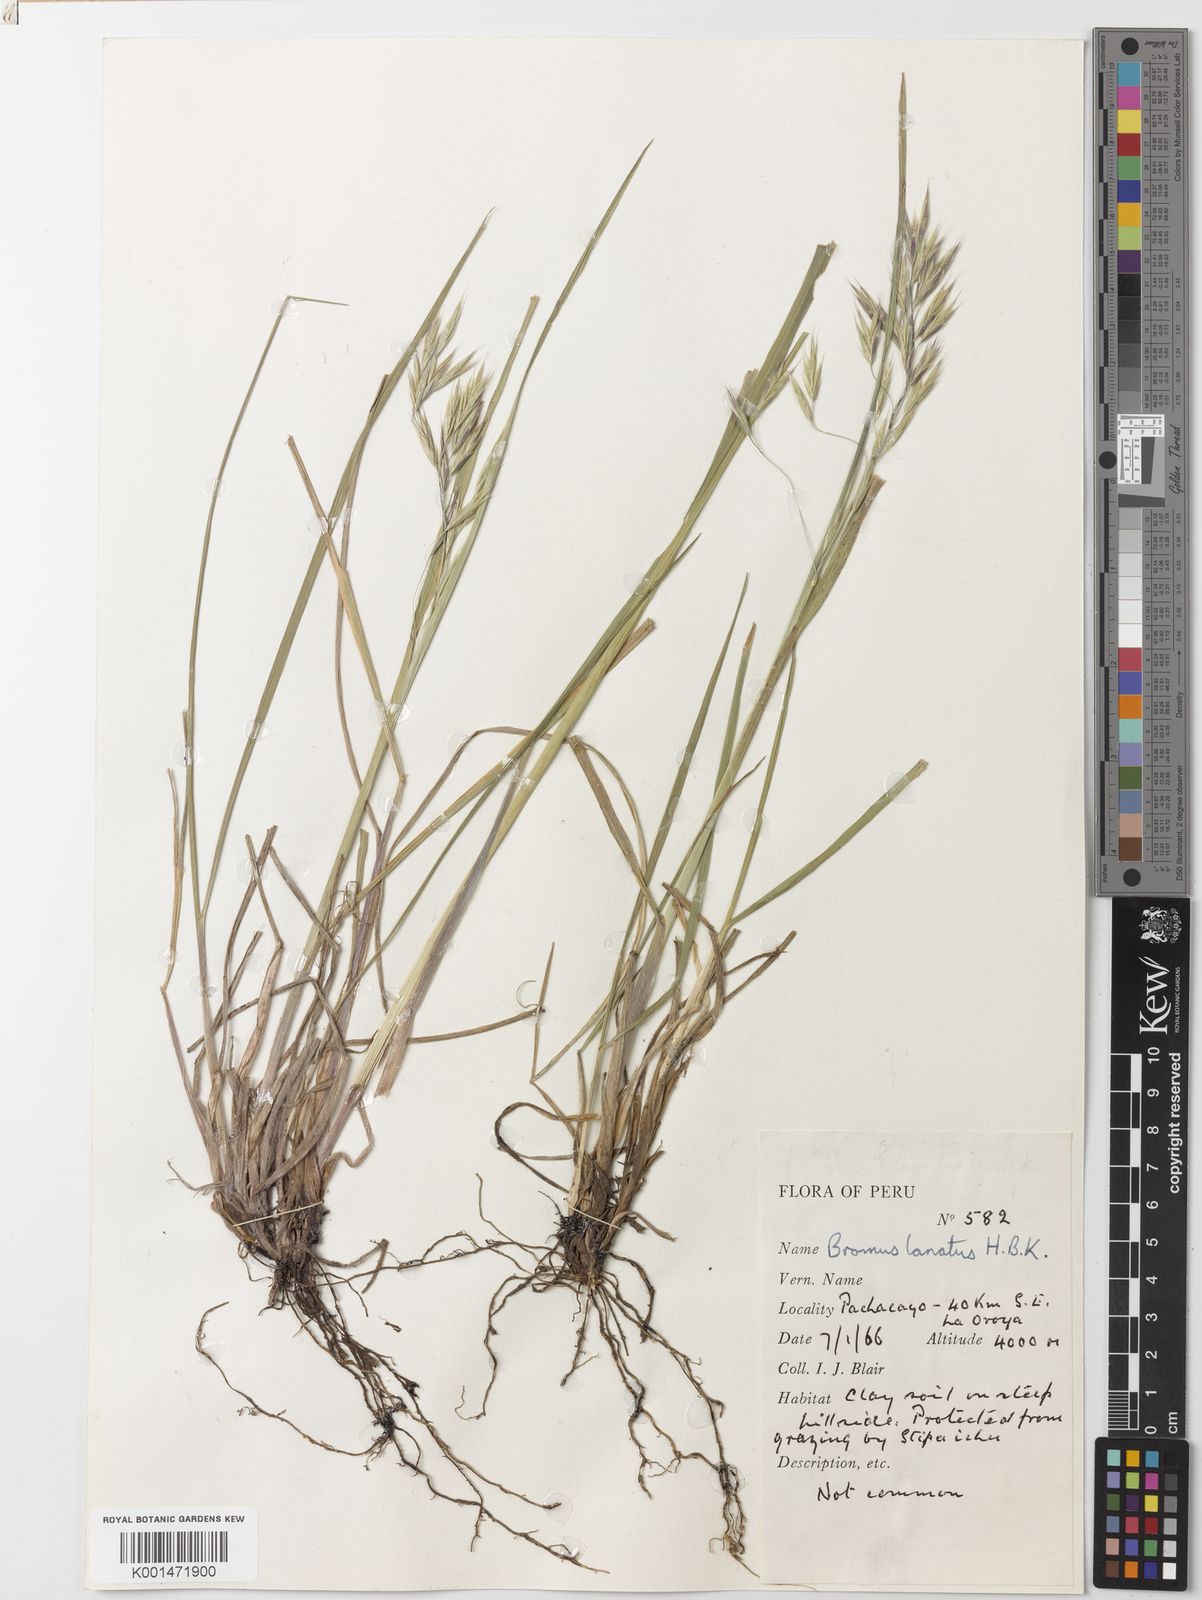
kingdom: Plantae
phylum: Tracheophyta
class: Liliopsida
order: Poales
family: Poaceae
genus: Bromus
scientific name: Bromus lanatus
